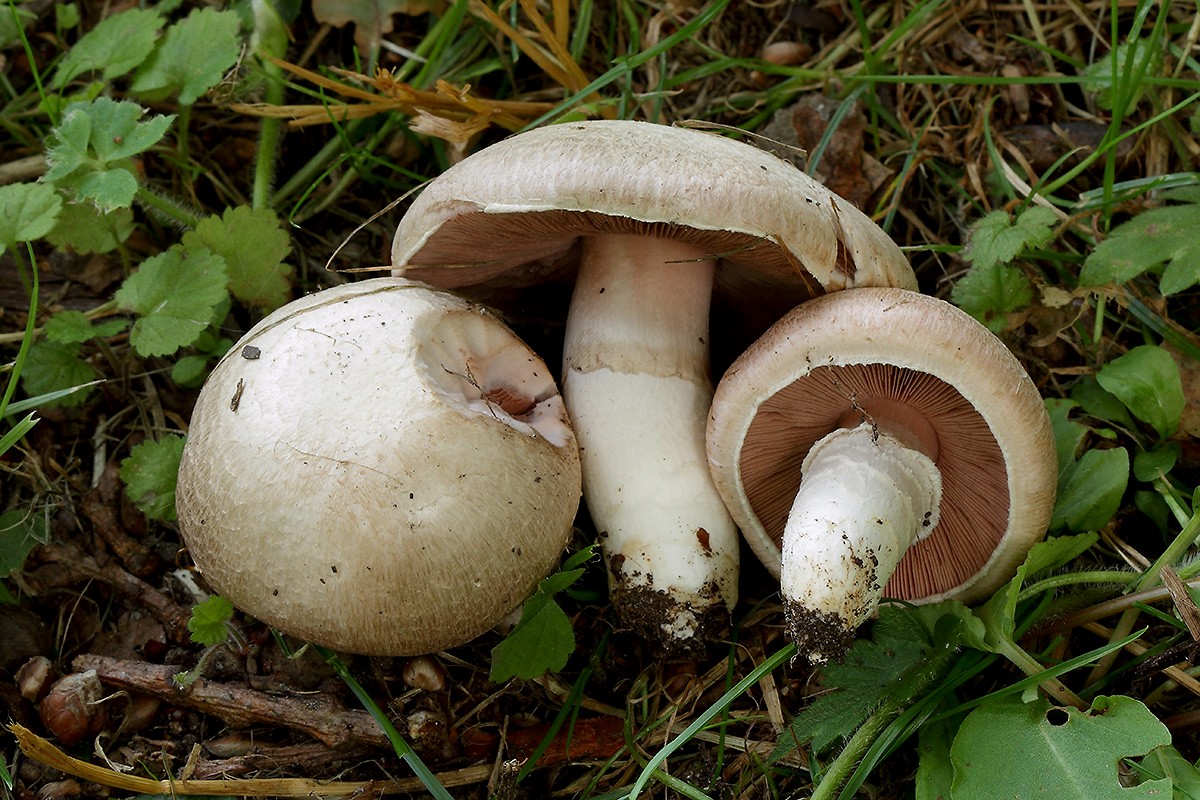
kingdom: Fungi
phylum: Basidiomycota
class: Agaricomycetes
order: Agaricales
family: Agaricaceae
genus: Agaricus
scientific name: Agaricus campestris
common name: mark-champignon
